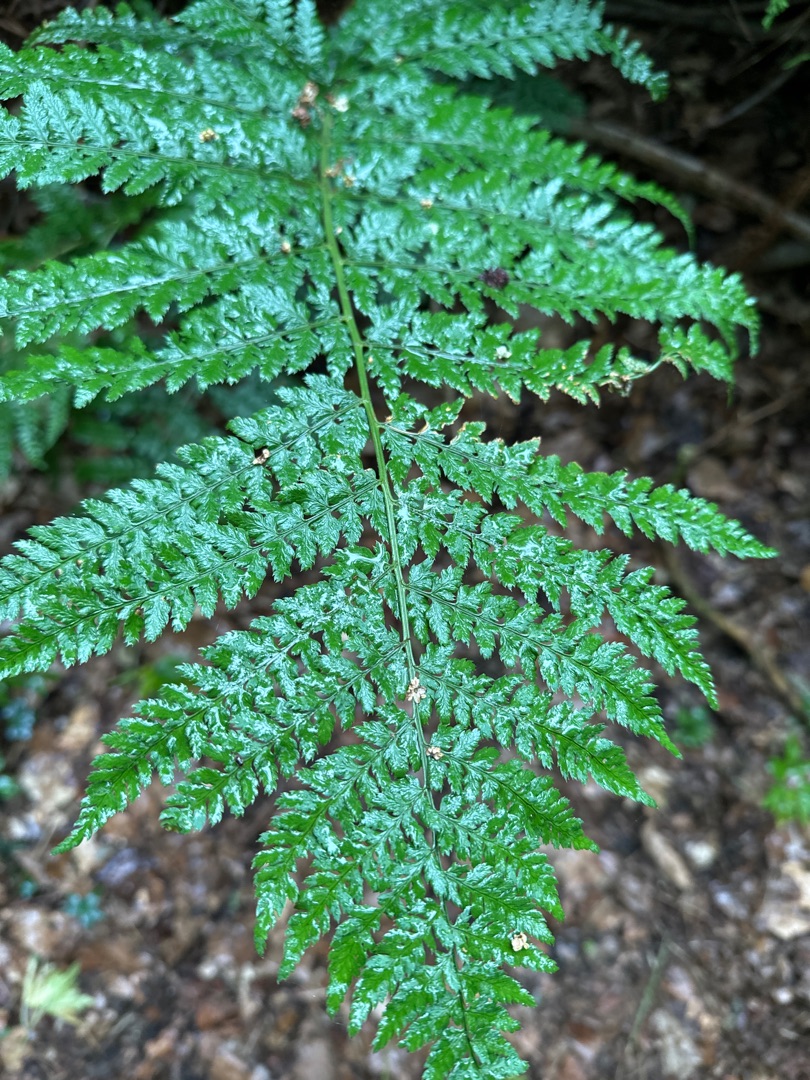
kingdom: Plantae
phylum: Tracheophyta
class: Polypodiopsida
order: Polypodiales
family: Dryopteridaceae
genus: Dryopteris
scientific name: Dryopteris dilatata
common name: Bredbladet mangeløv
